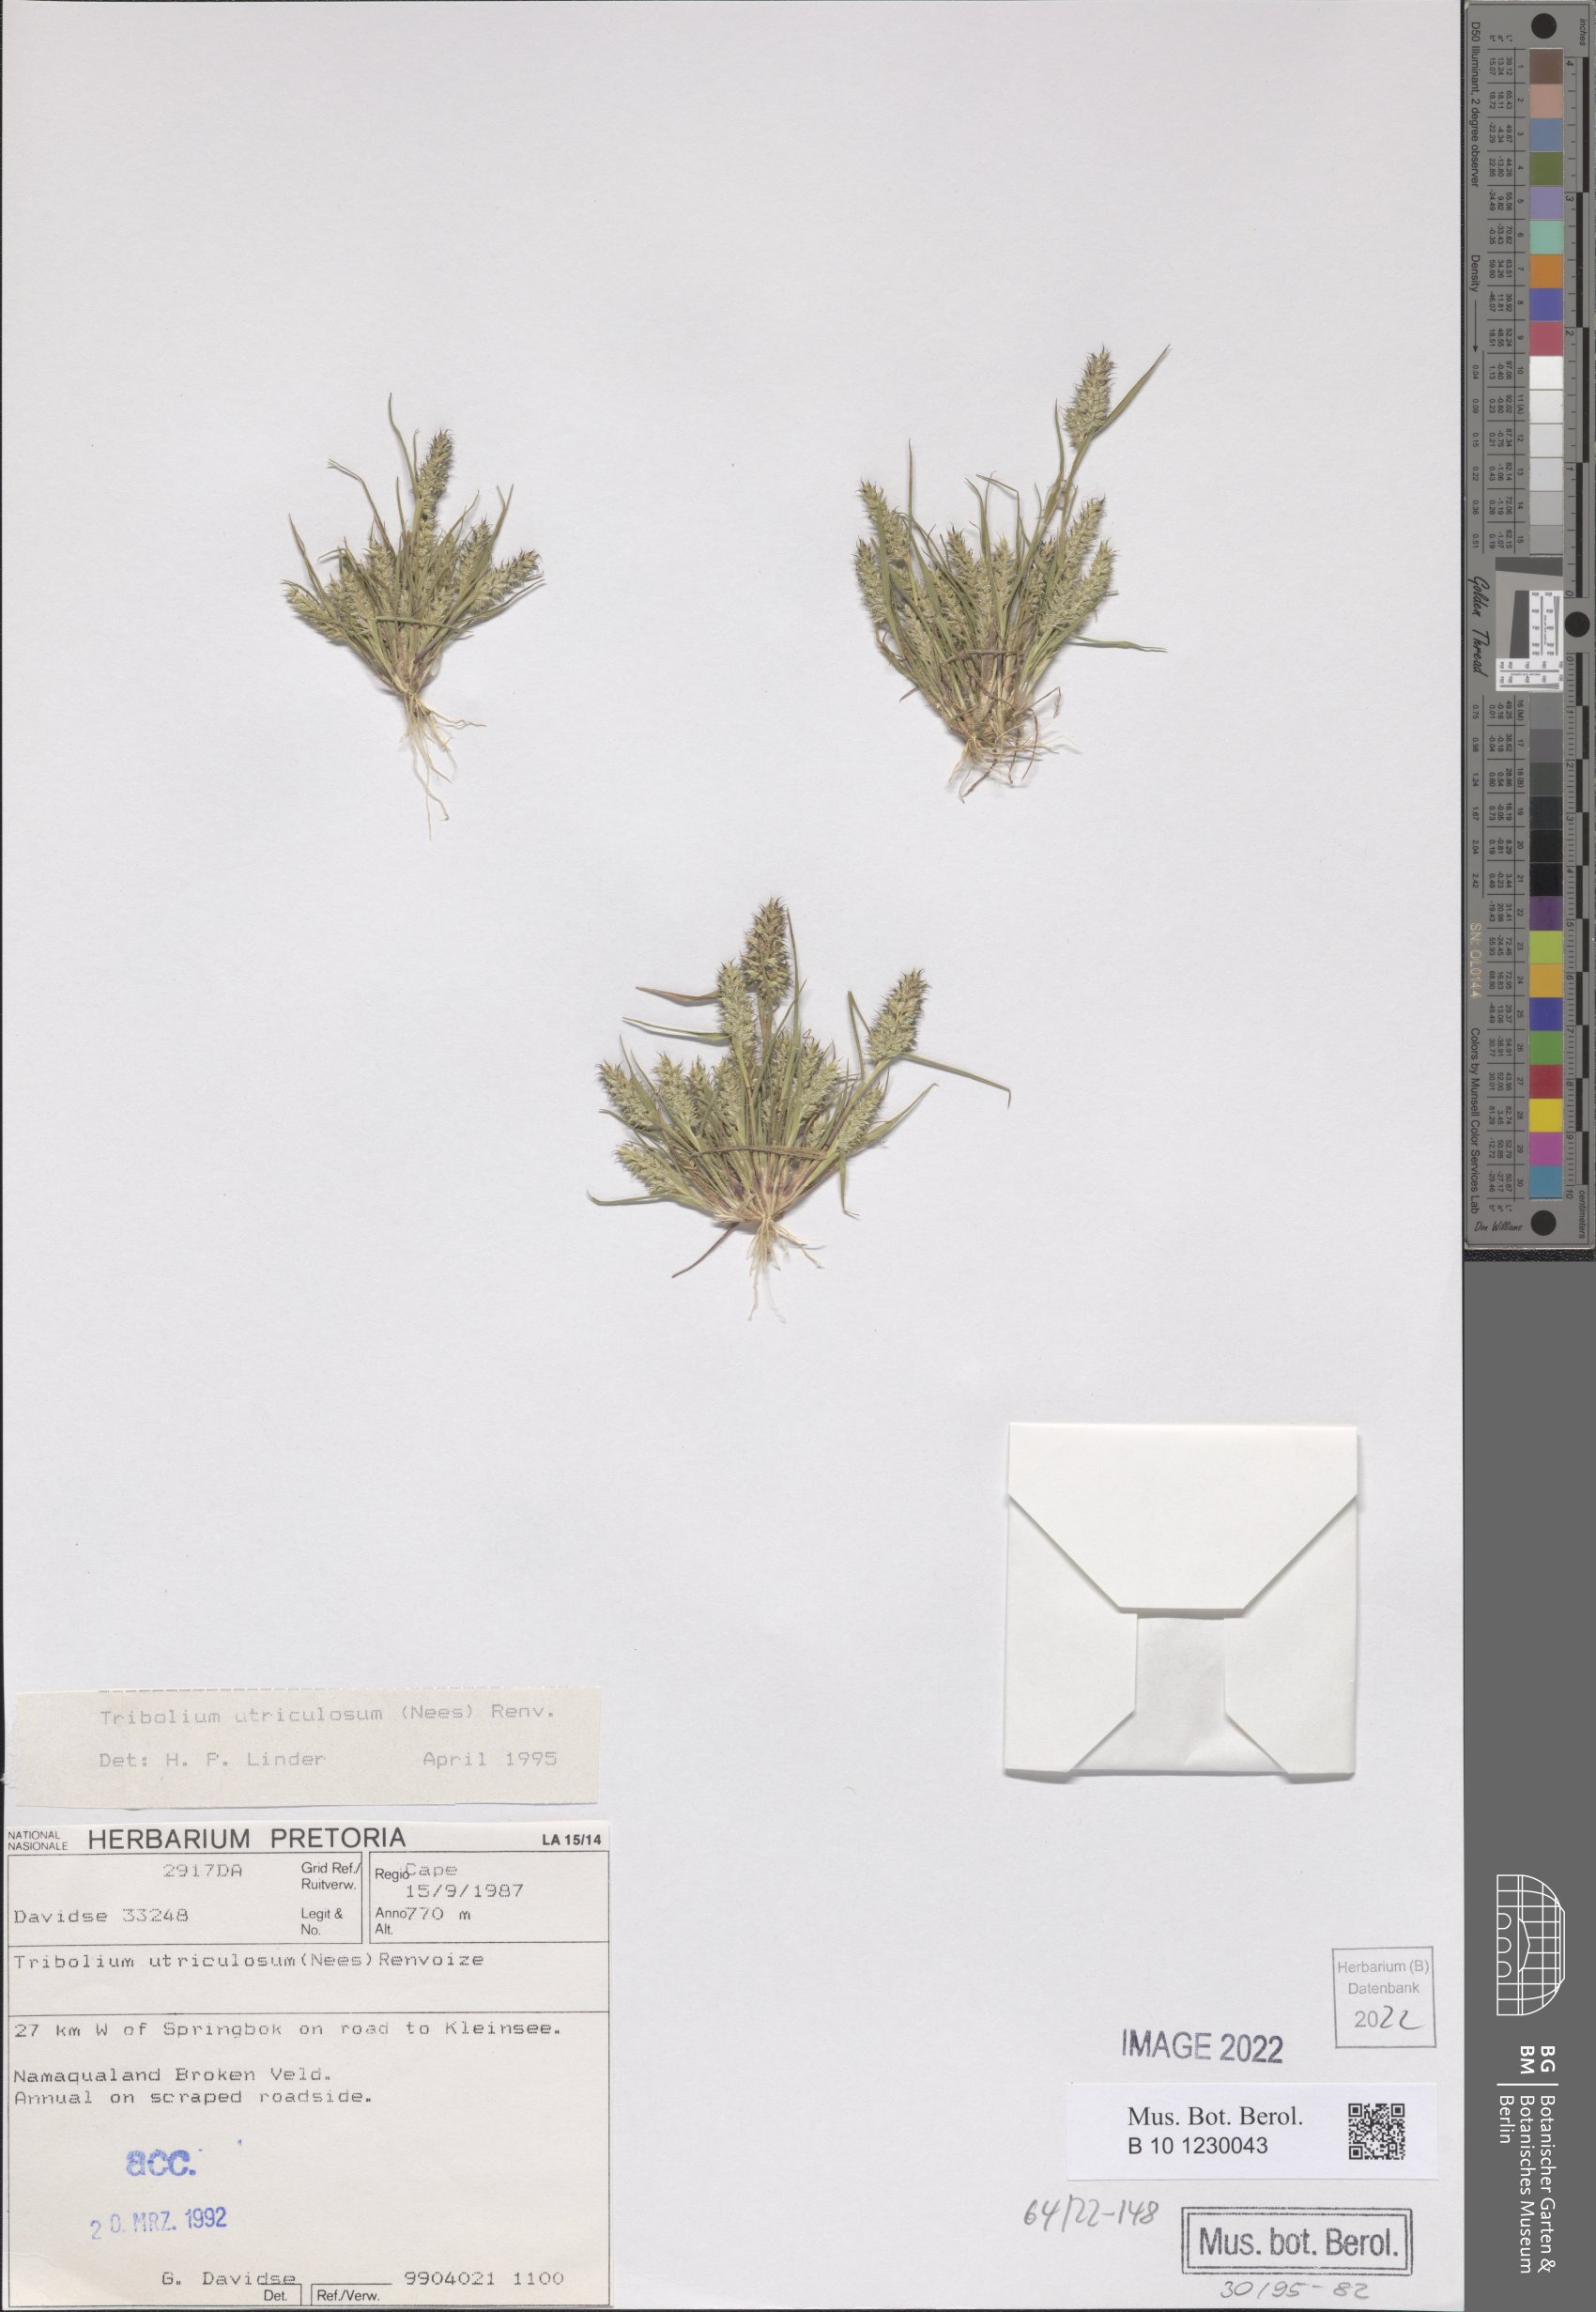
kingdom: Plantae
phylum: Tracheophyta
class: Liliopsida
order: Poales
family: Poaceae
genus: Tribolium
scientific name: Tribolium utriculosum
